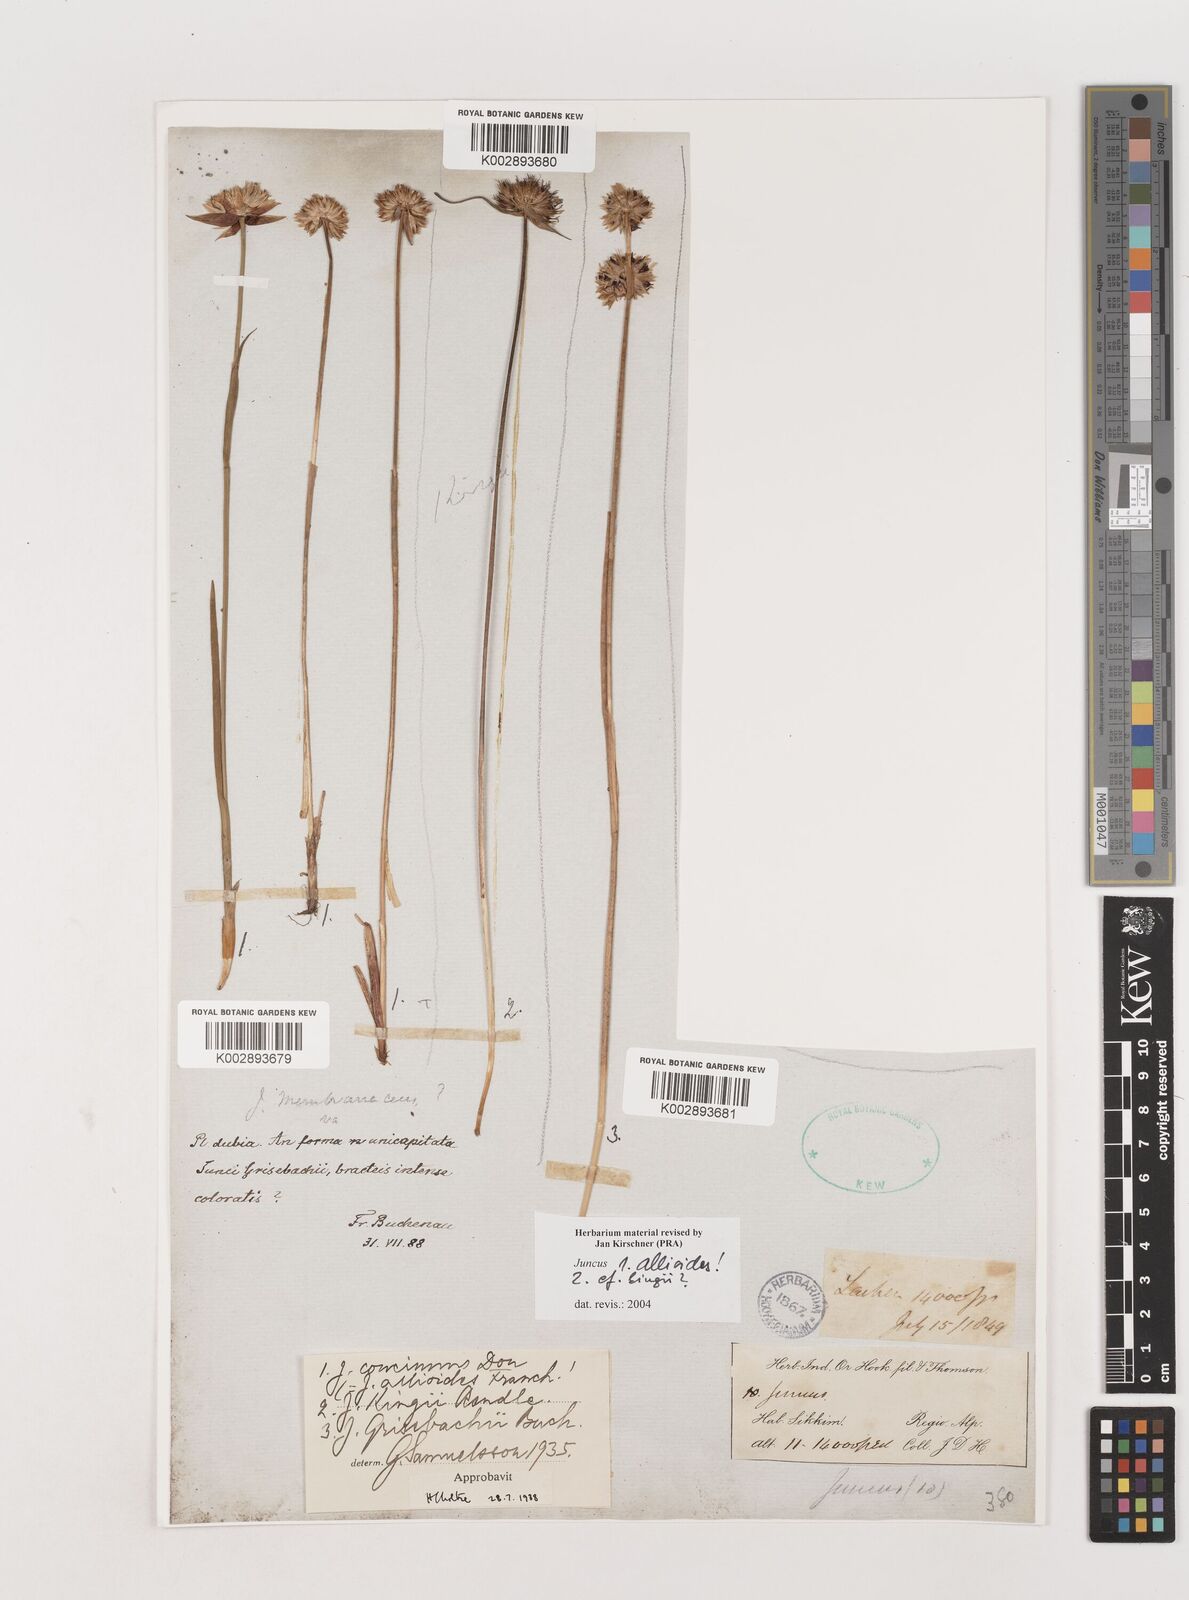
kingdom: Plantae
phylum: Tracheophyta
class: Liliopsida
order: Poales
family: Juncaceae
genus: Juncus
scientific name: Juncus allioides
